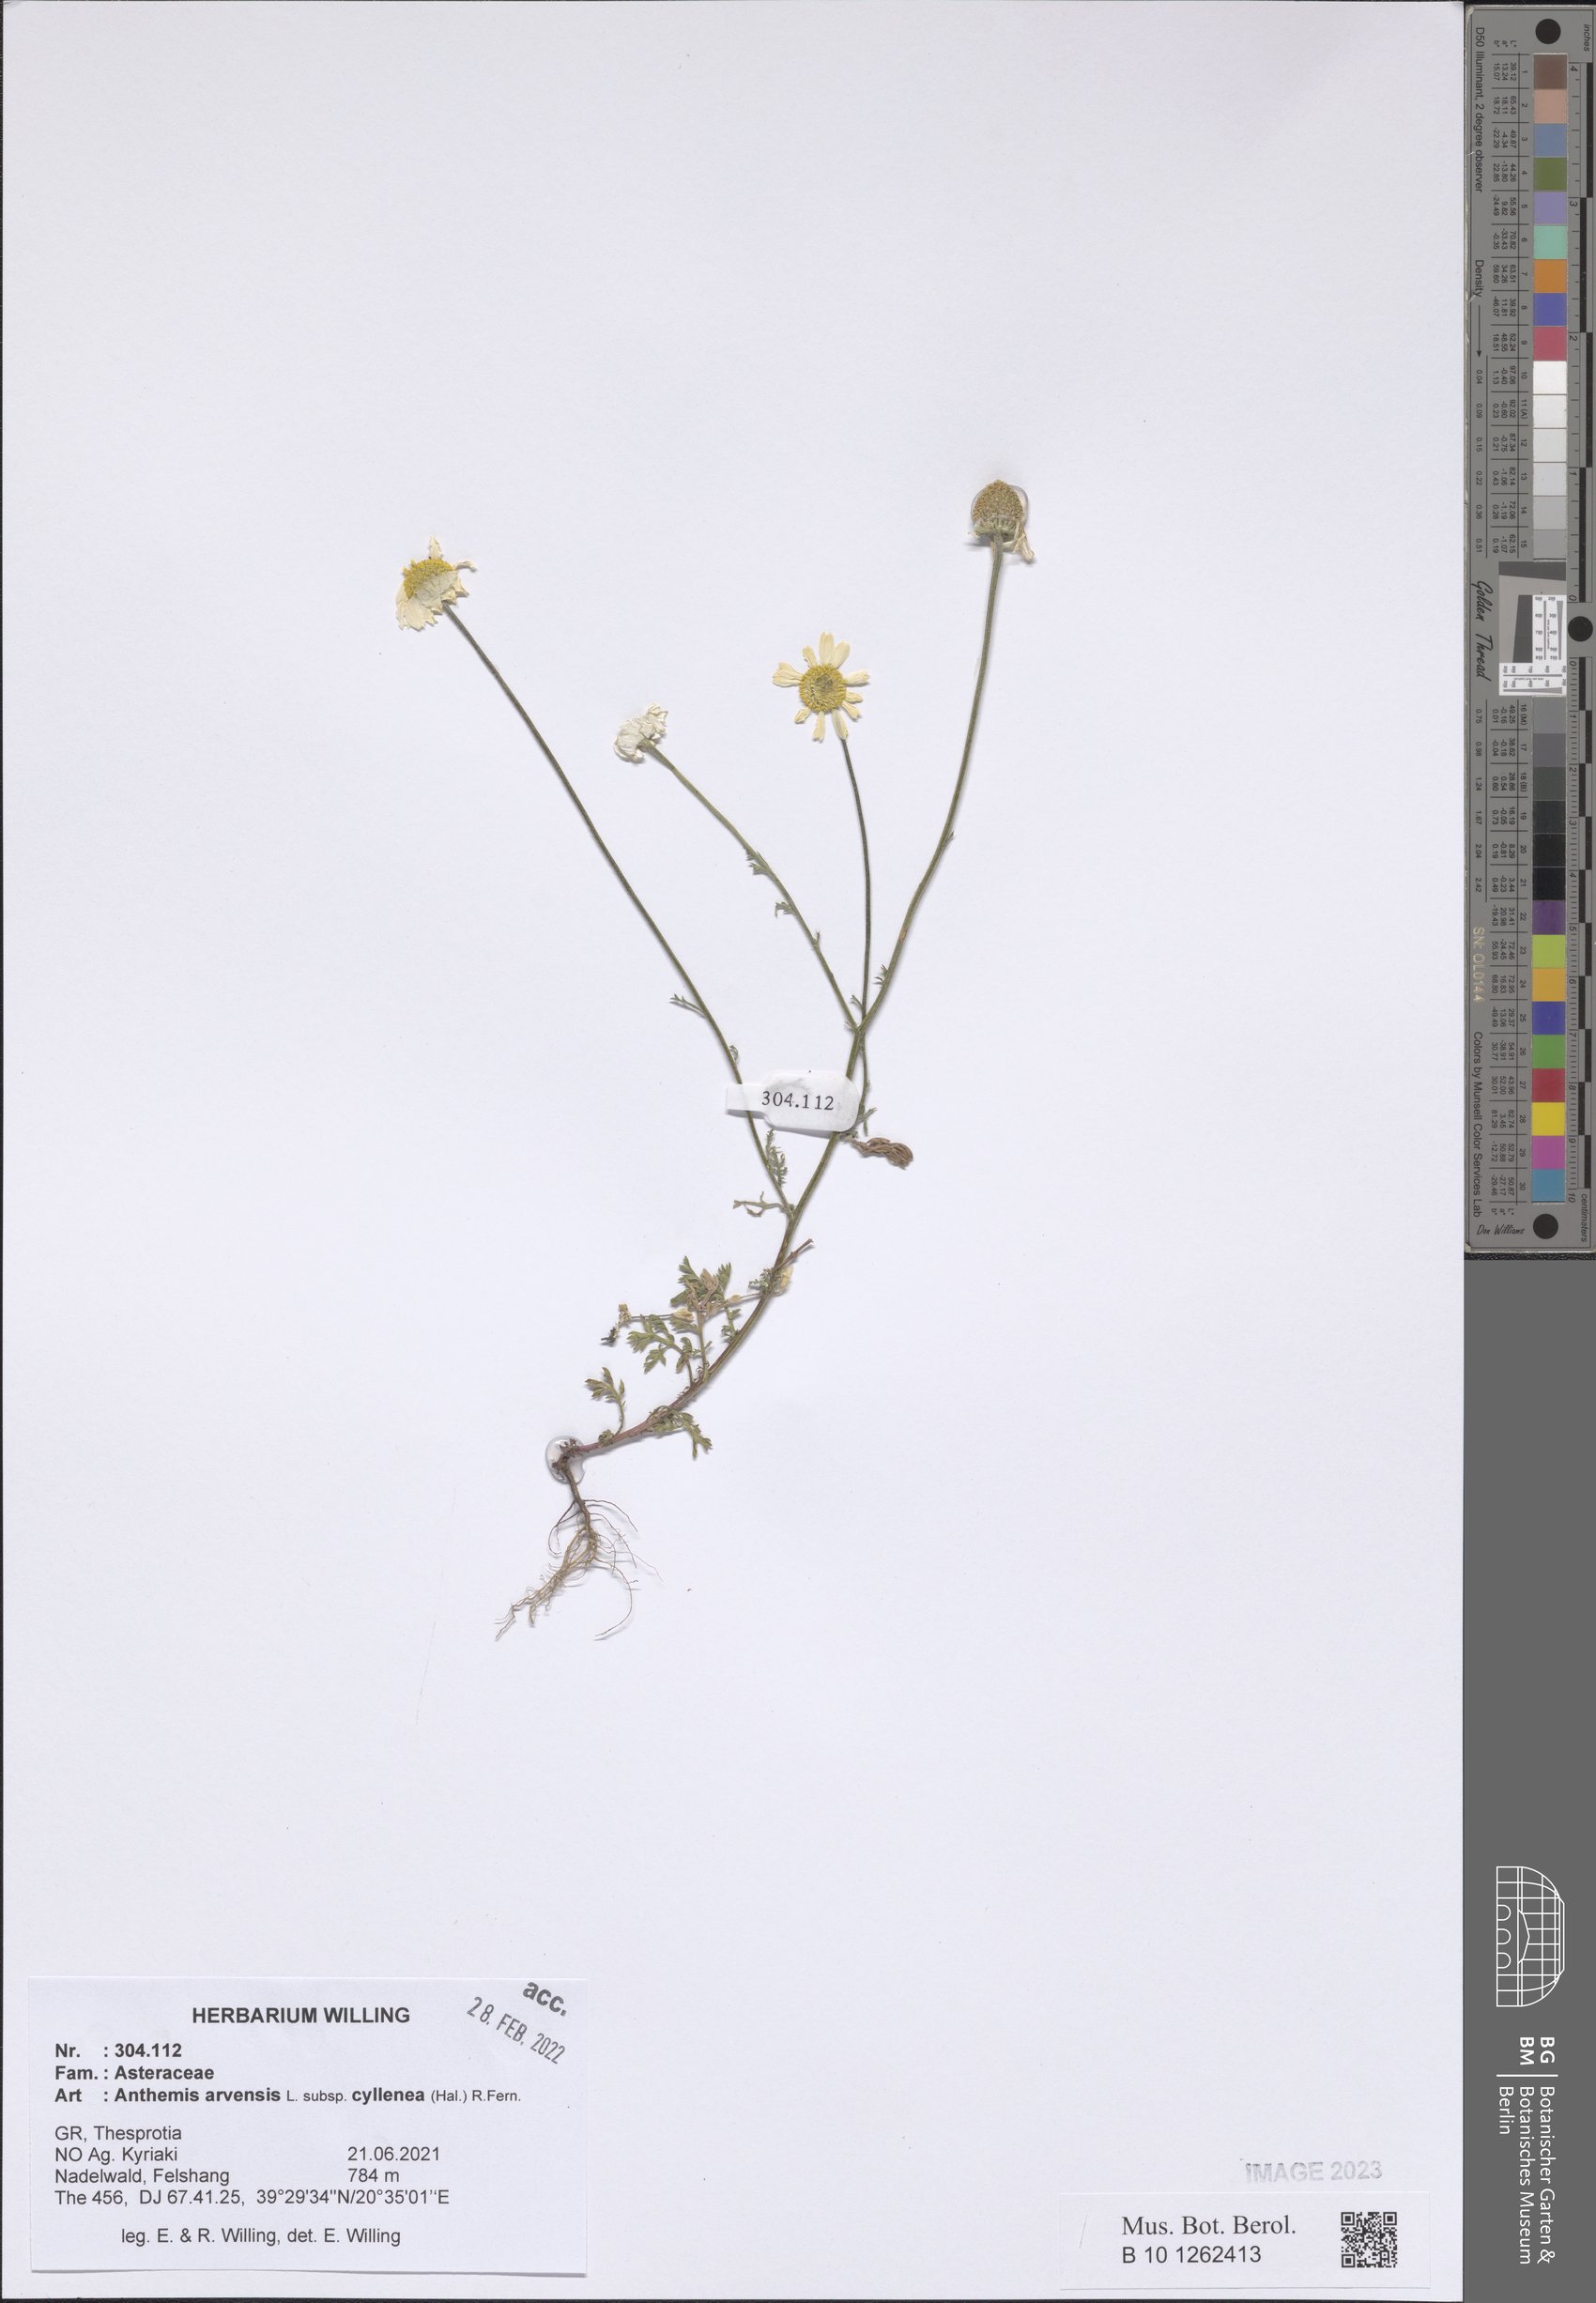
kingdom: Plantae
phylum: Tracheophyta
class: Magnoliopsida
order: Asterales
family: Asteraceae
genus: Anthemis
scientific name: Anthemis arvensis
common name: Corn chamomile
